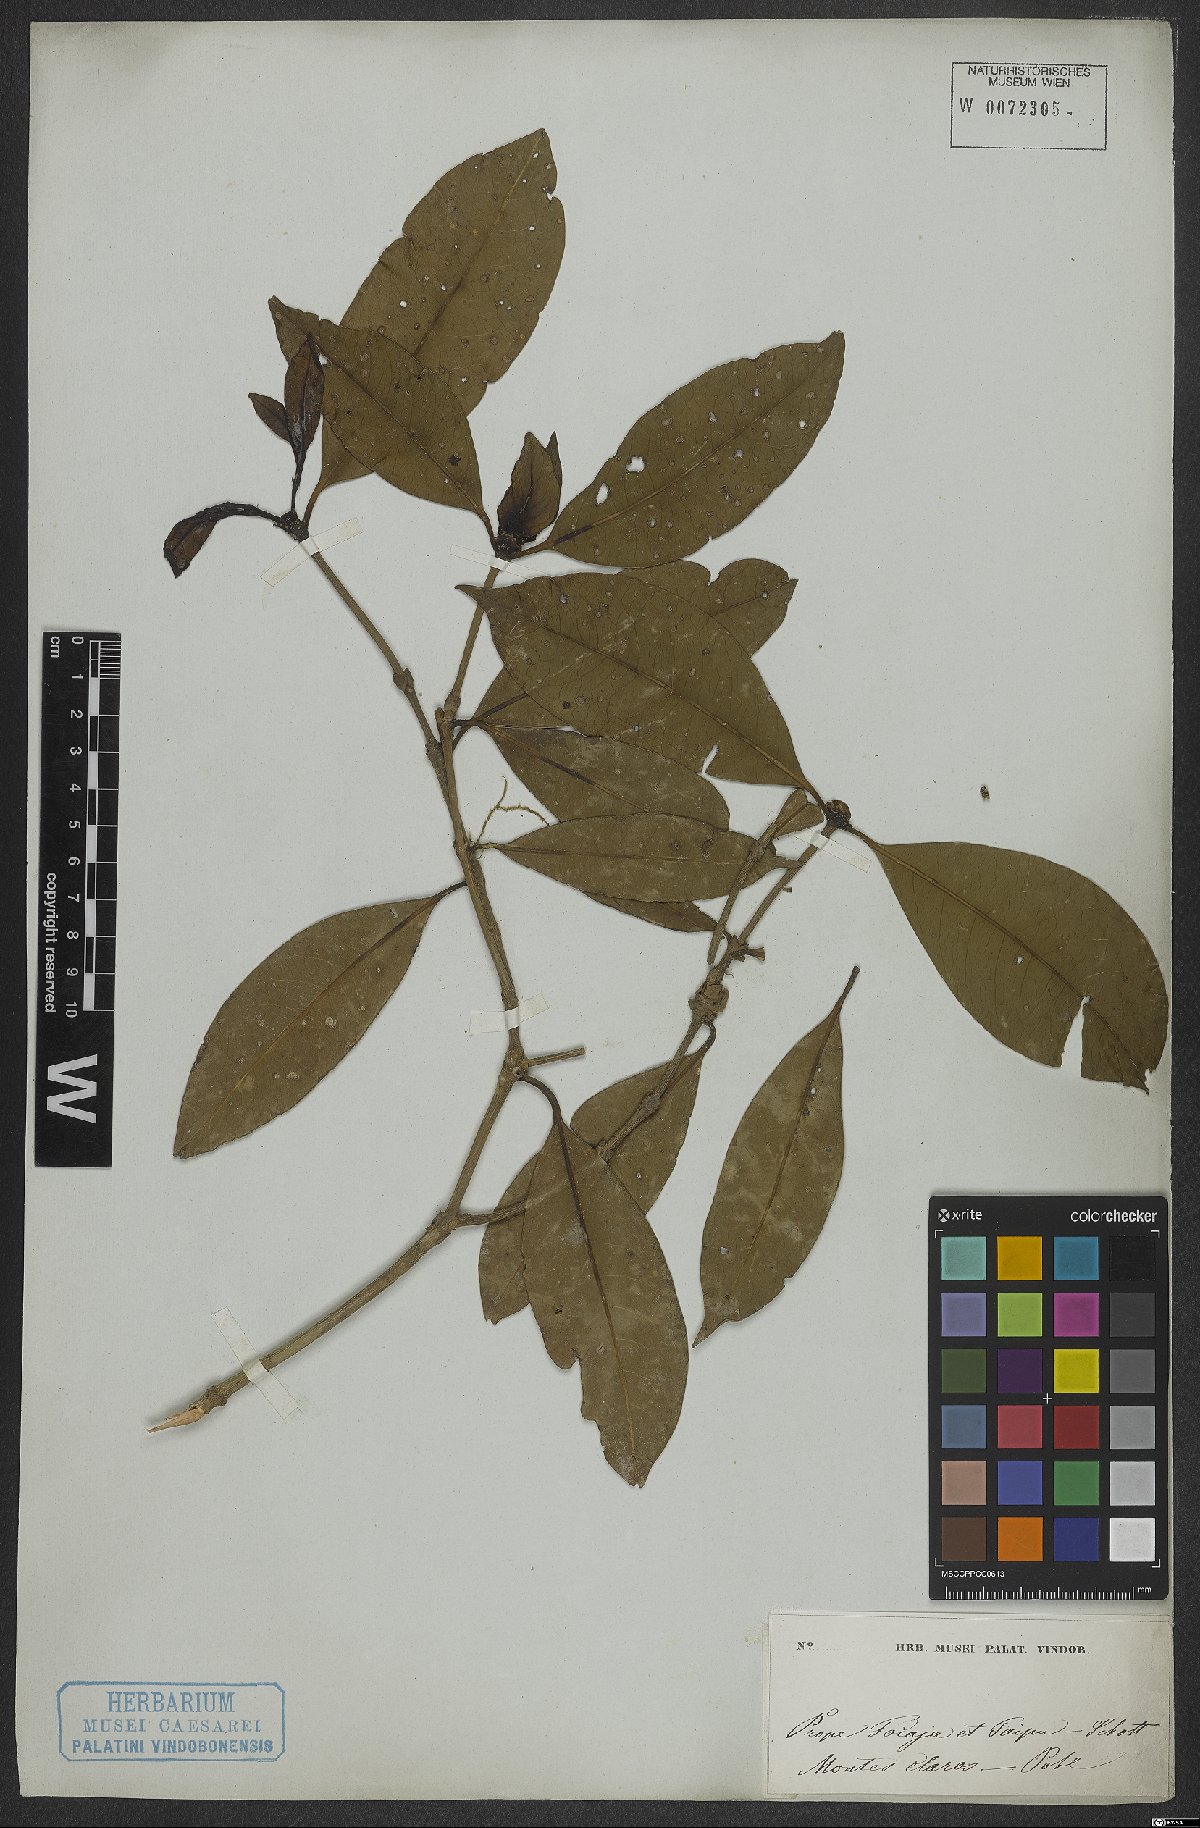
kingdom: Plantae
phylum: Tracheophyta
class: Magnoliopsida
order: Gentianales
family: Rubiaceae
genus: Hillia
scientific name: Hillia
